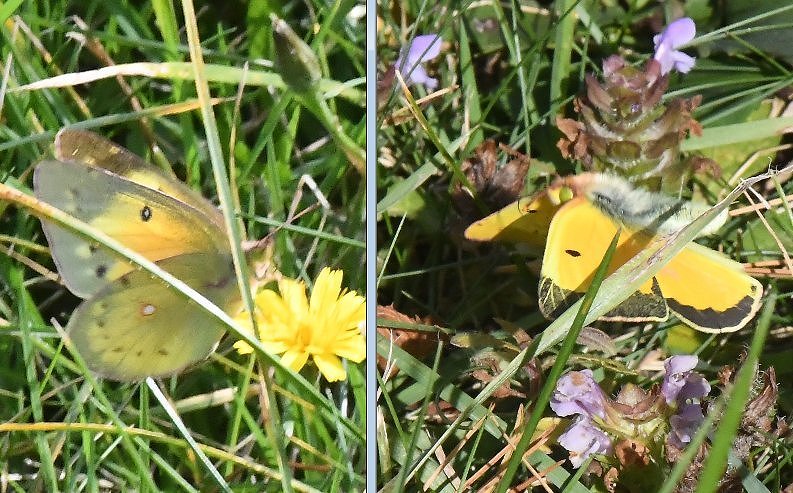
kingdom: Animalia
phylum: Arthropoda
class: Insecta
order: Lepidoptera
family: Pieridae
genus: Colias
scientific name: Colias eurytheme
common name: Orange Sulphur
